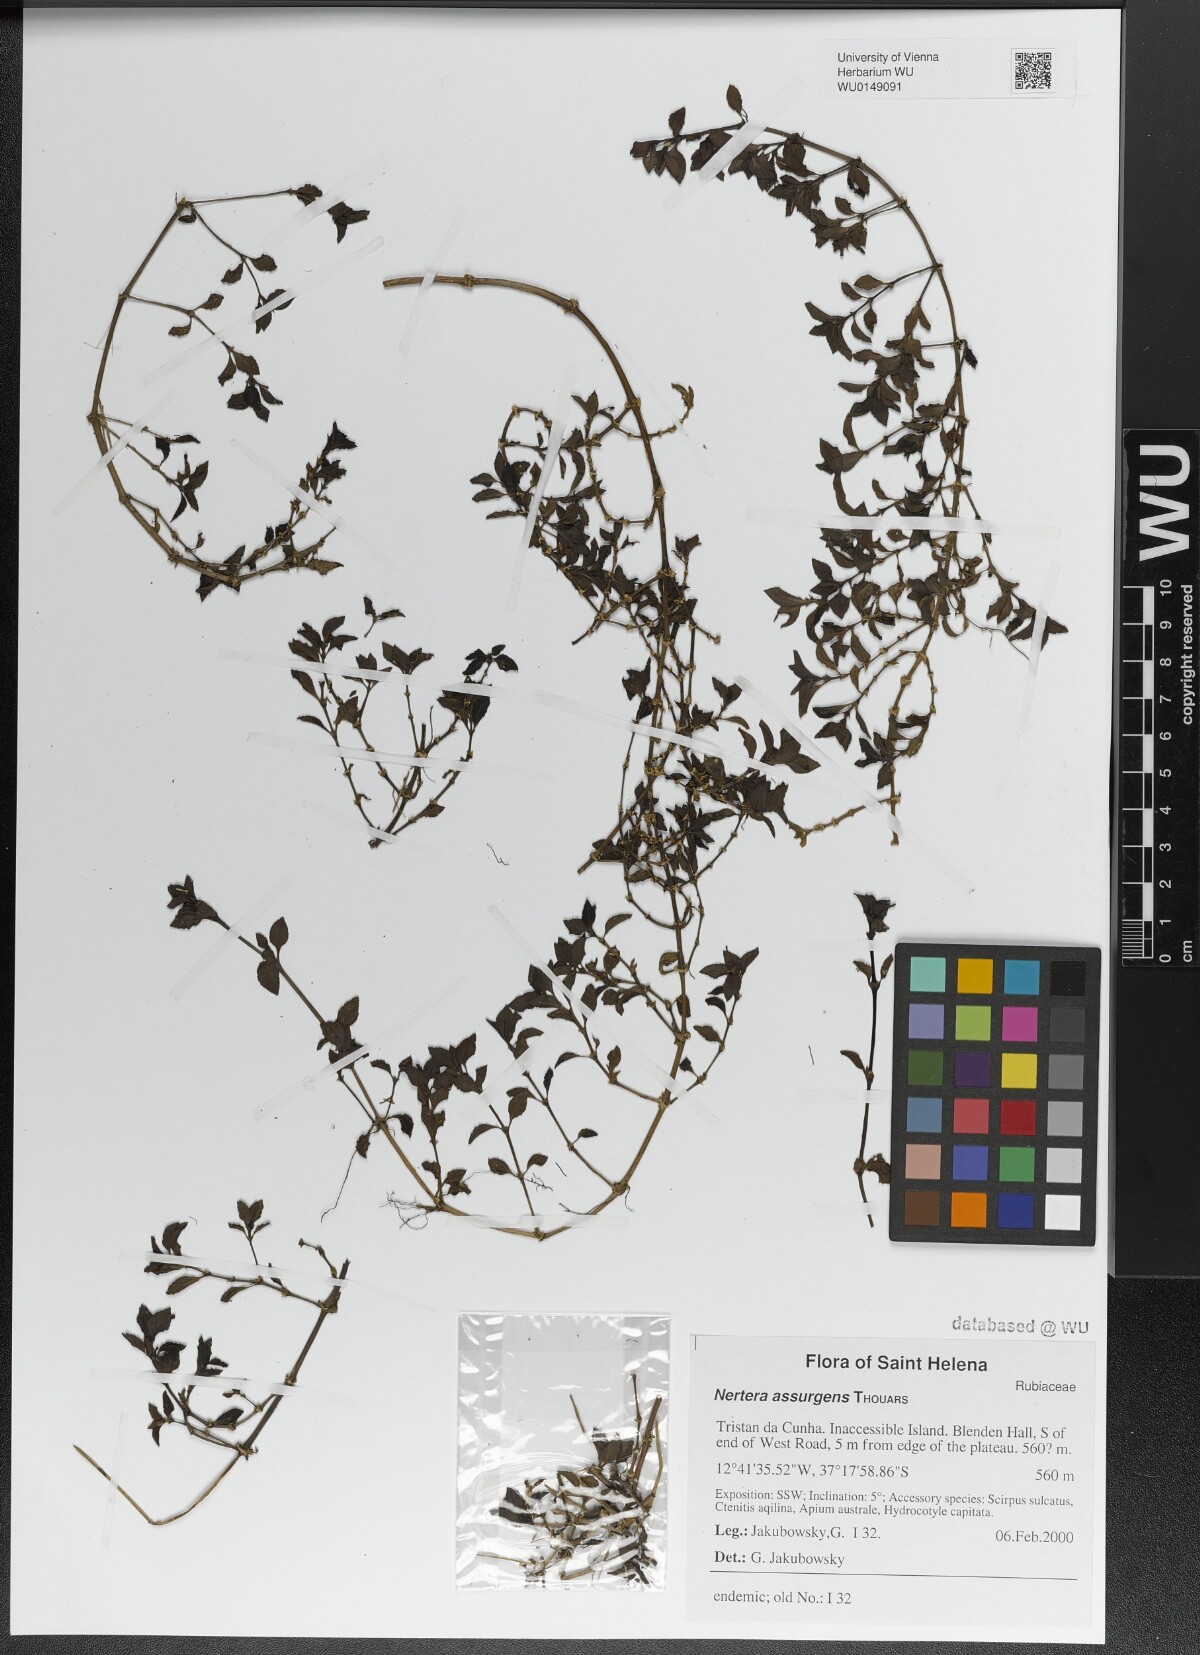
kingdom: Plantae
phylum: Tracheophyta
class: Magnoliopsida
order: Gentianales
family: Rubiaceae
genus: Nertera
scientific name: Nertera granadensis
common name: Beadplant
